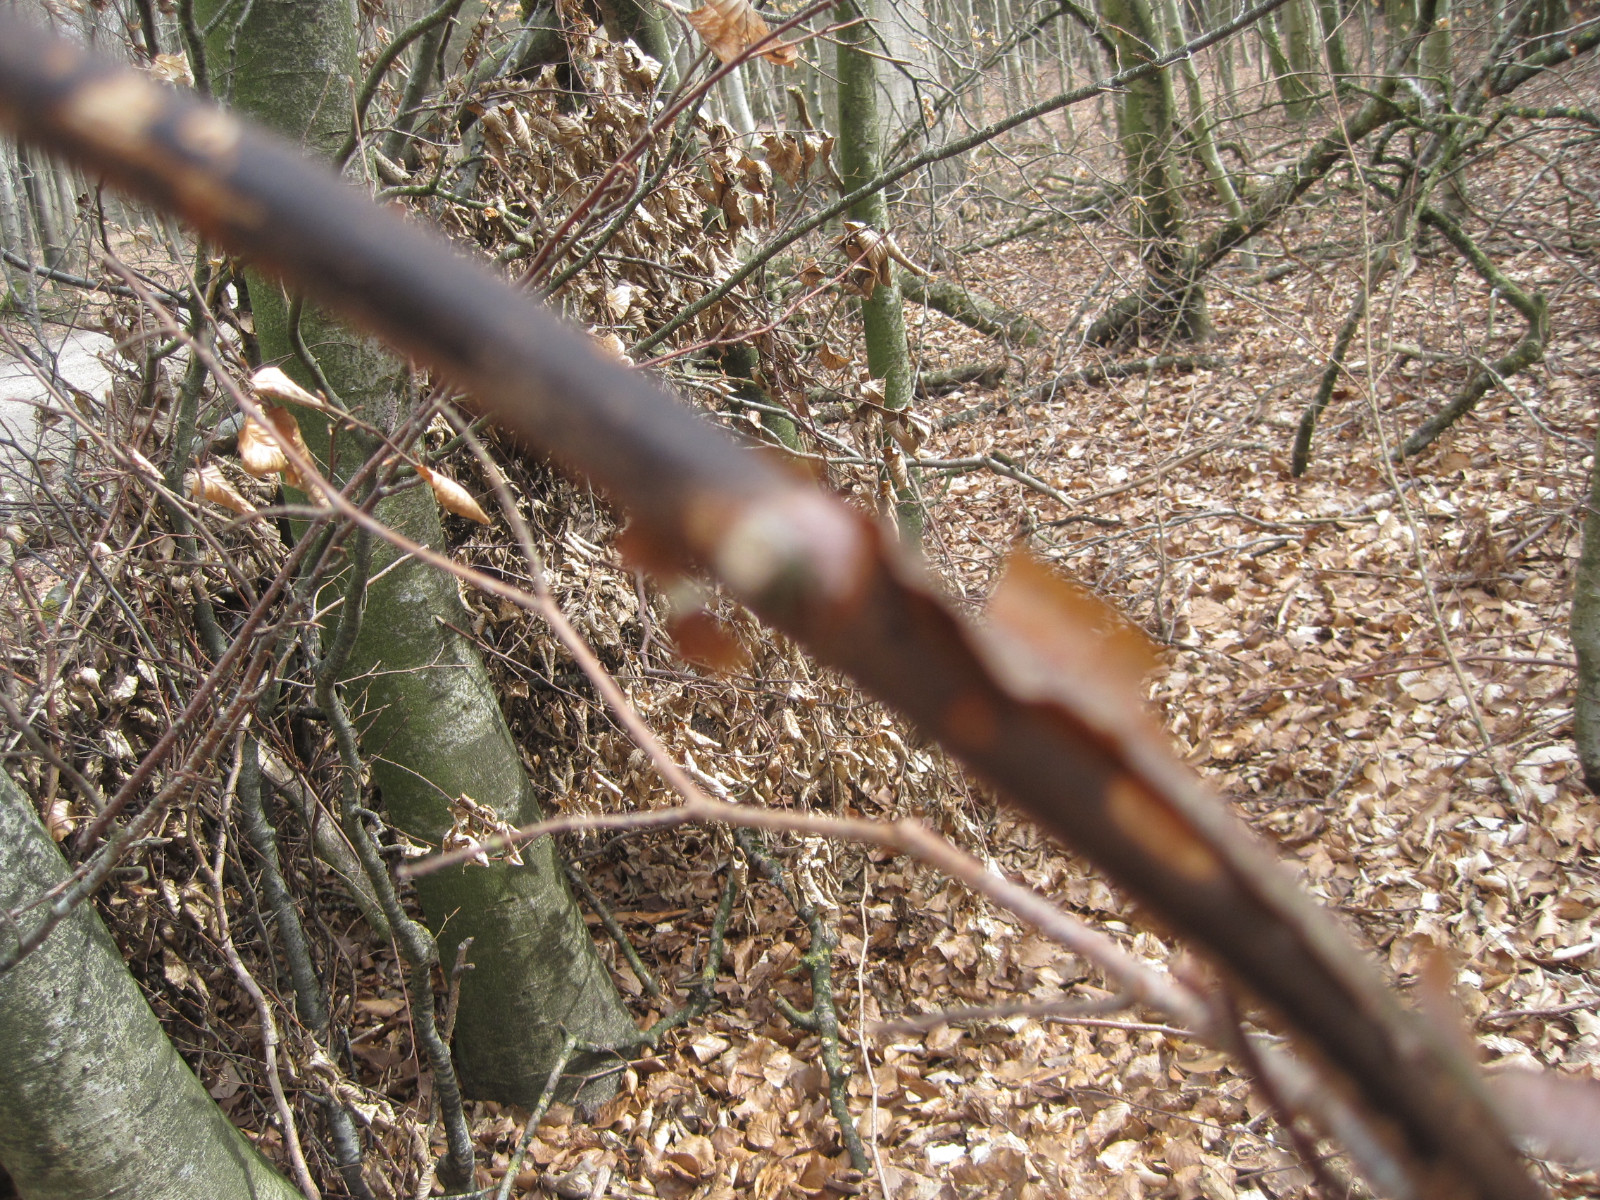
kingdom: Fungi
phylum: Ascomycota
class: Sordariomycetes
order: Xylariales
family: Diatrypaceae
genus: Diatrype
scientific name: Diatrype decorticata
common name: barksprænger-kulskorpe
